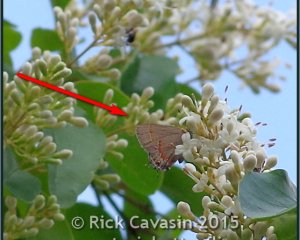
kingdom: Animalia
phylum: Arthropoda
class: Insecta
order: Lepidoptera
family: Lycaenidae
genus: Calycopis
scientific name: Calycopis cecrops
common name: Red-banded Hairstreak
